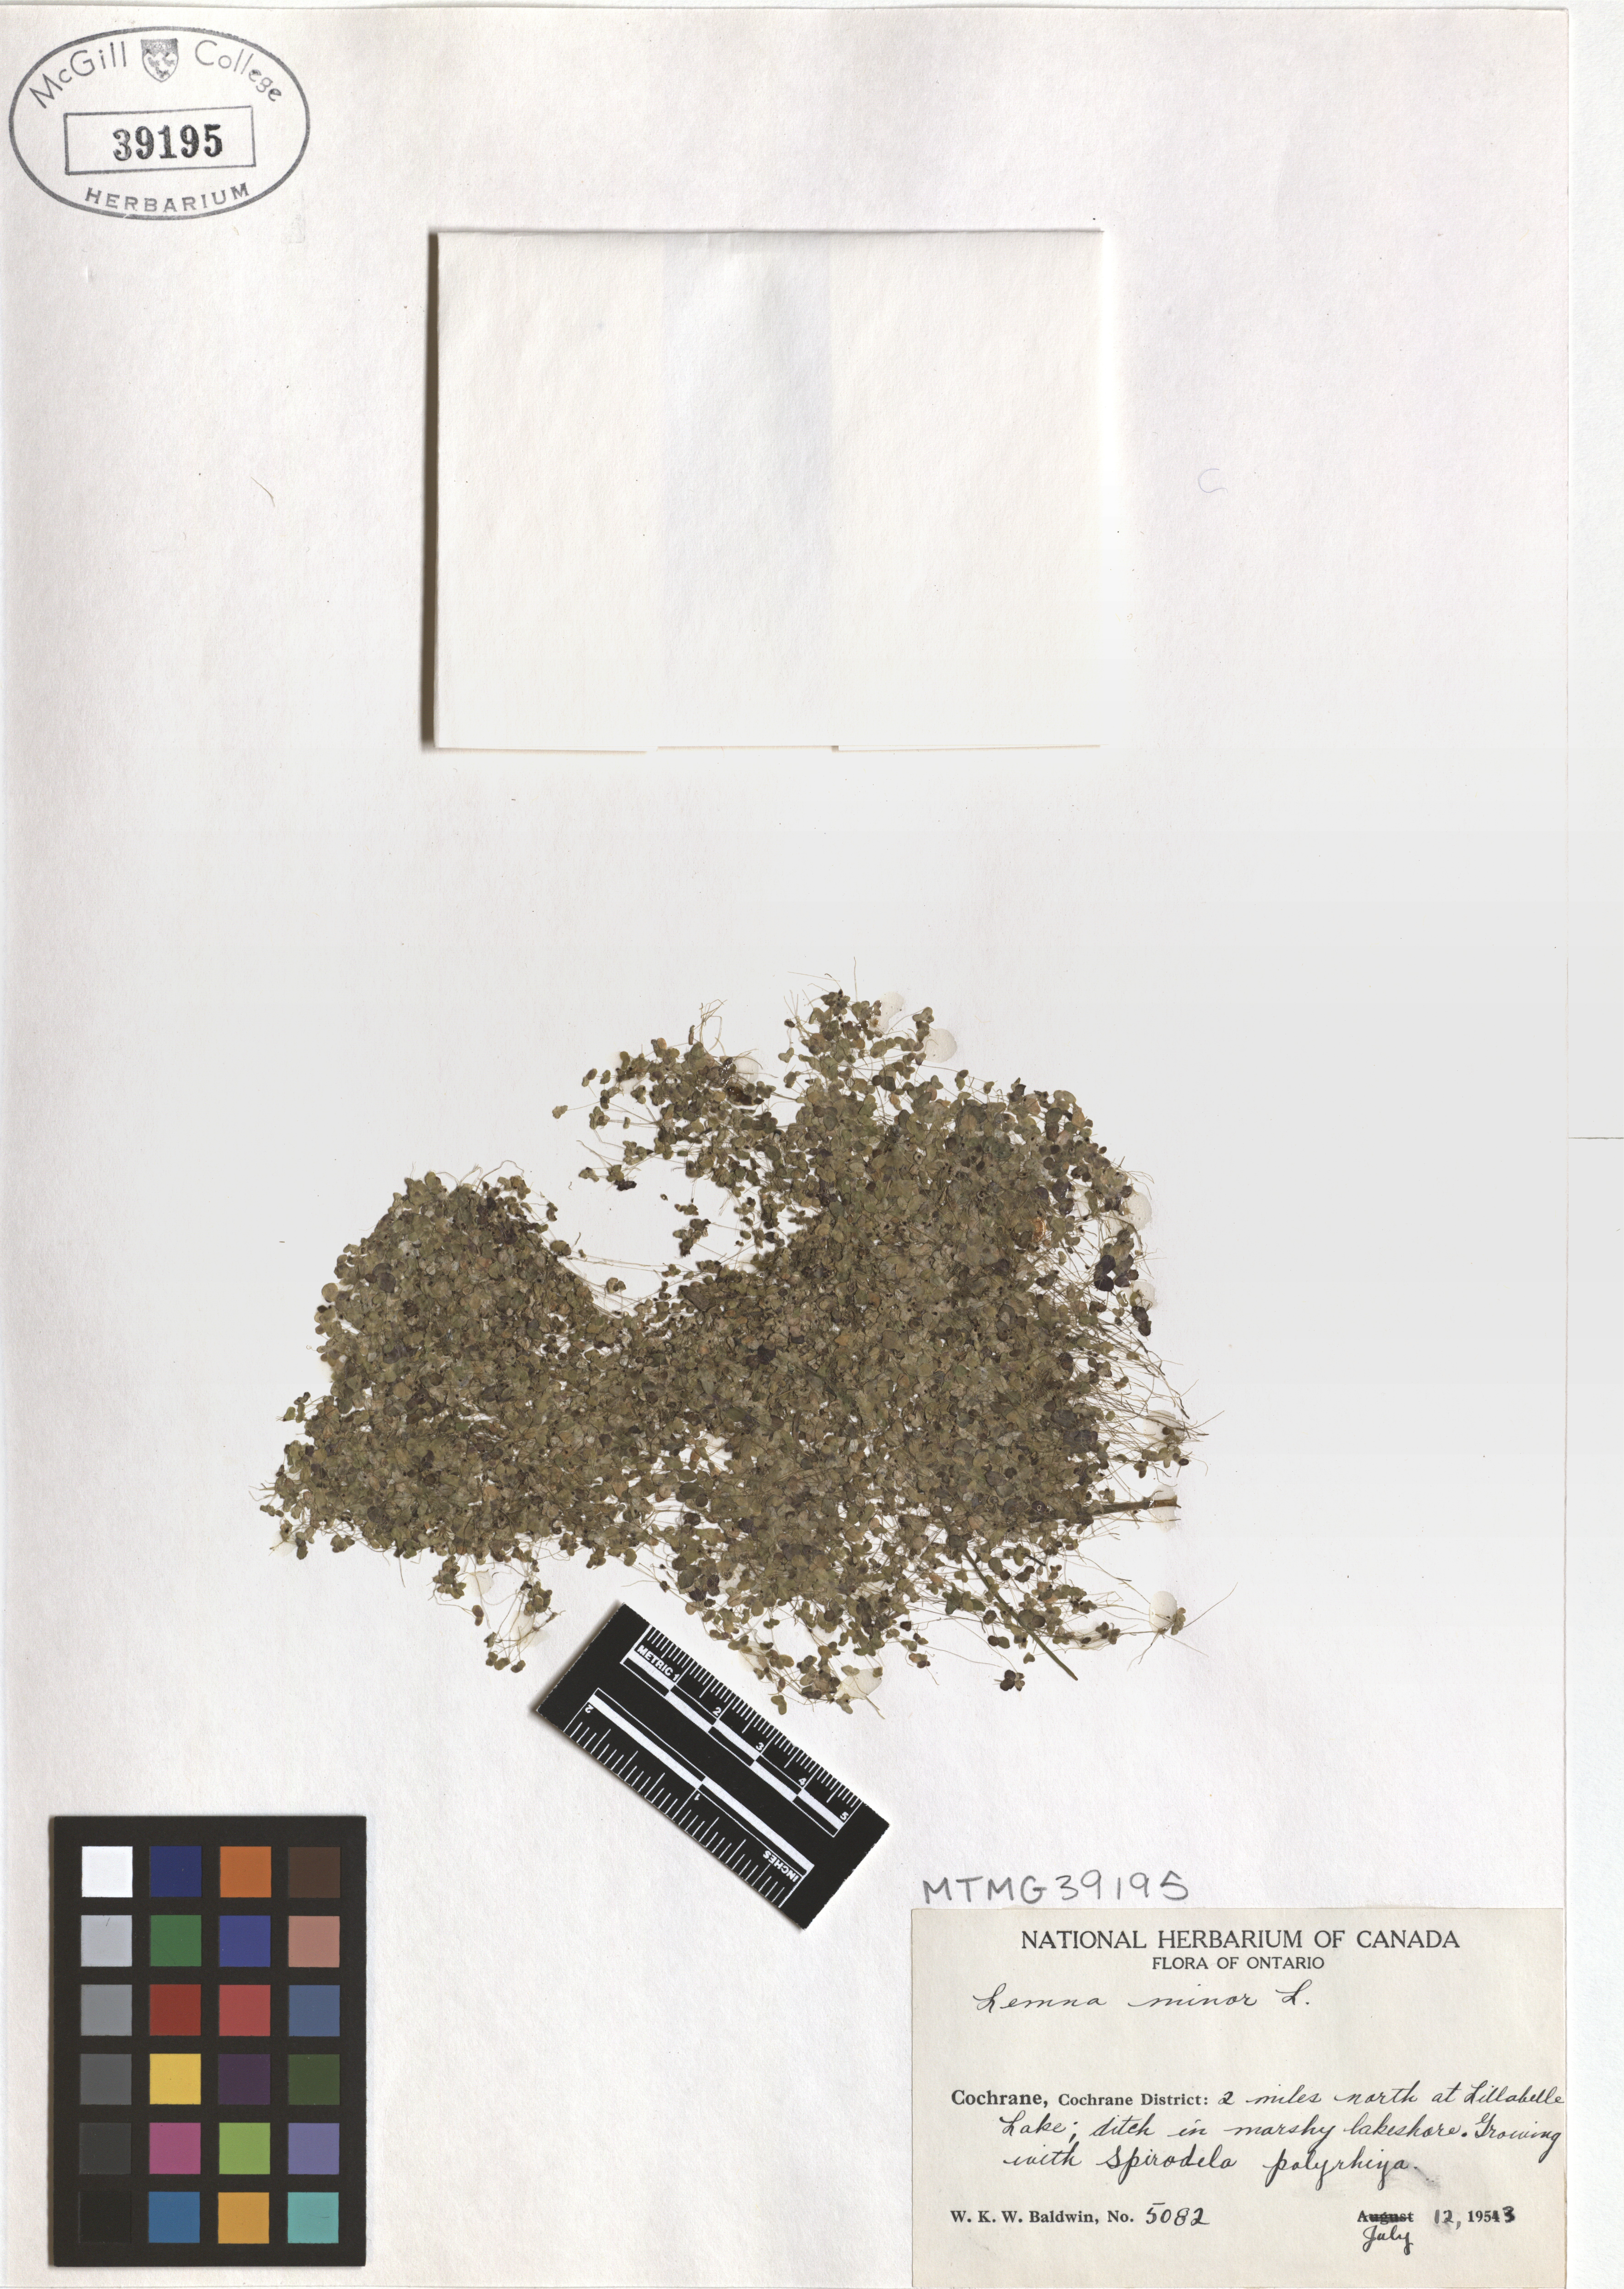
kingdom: Plantae
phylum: Tracheophyta
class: Liliopsida
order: Alismatales
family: Araceae
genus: Lemna
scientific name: Lemna minor
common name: Common duckweed
